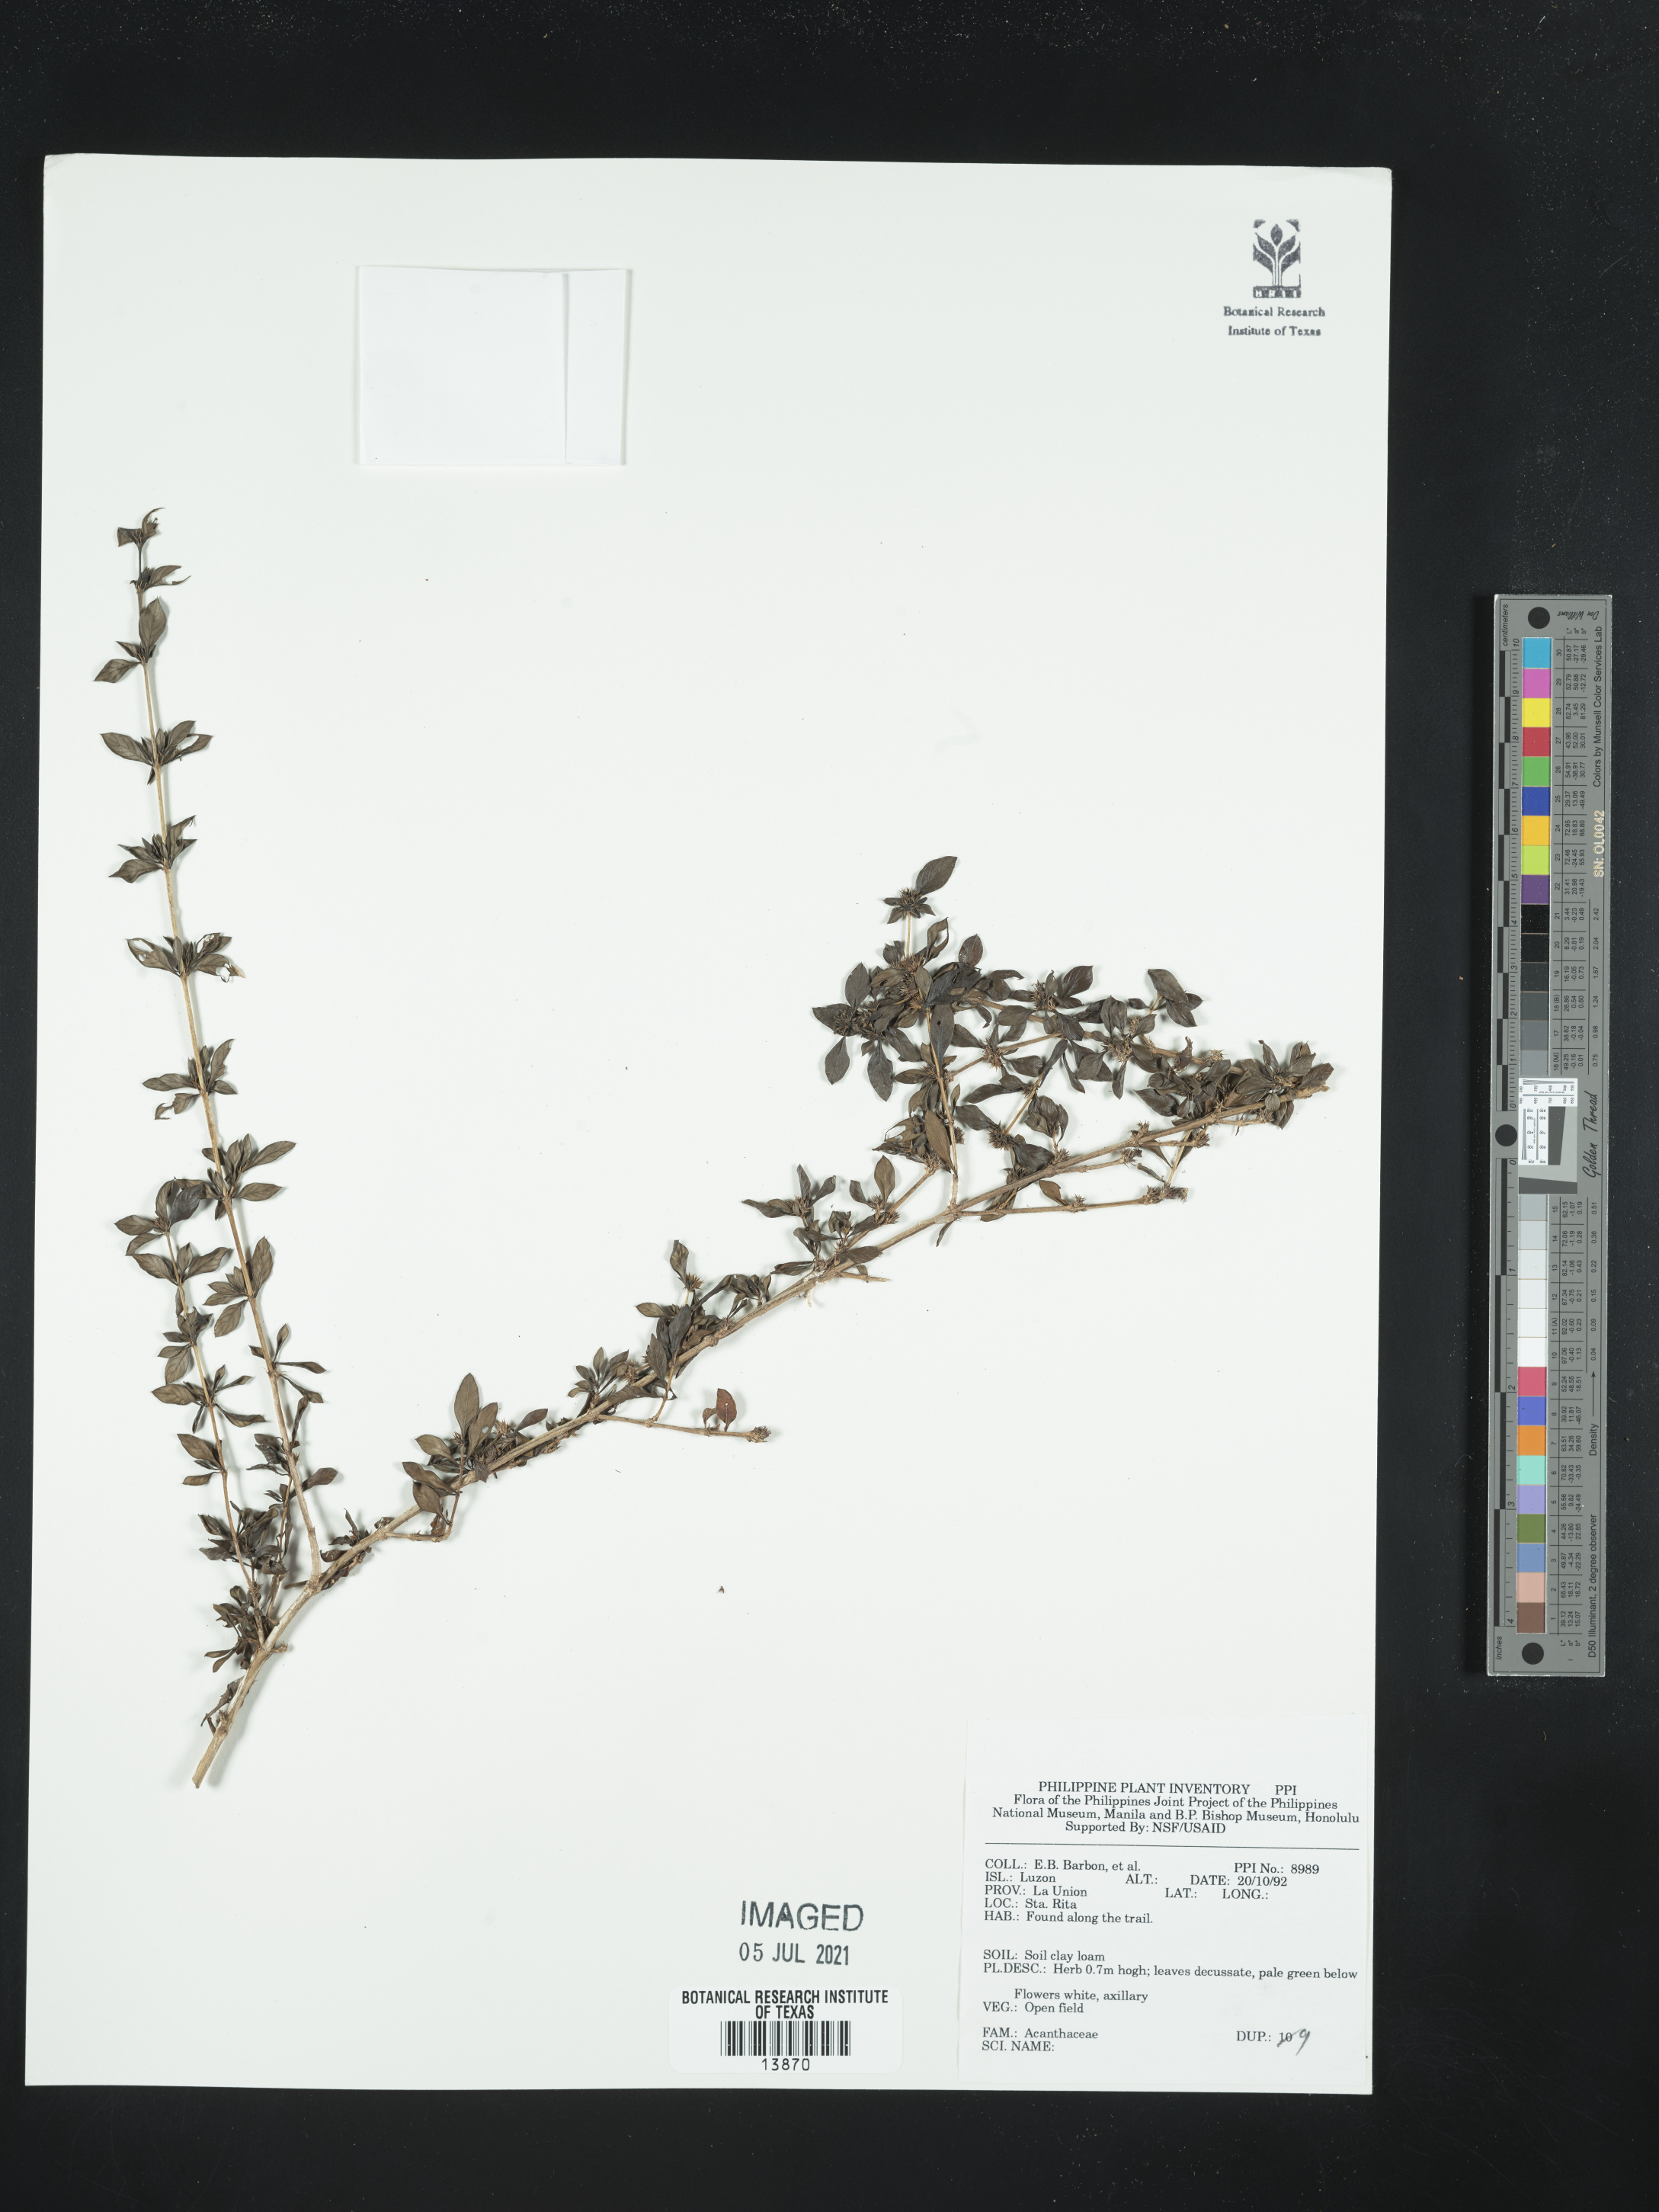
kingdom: Plantae
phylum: Tracheophyta
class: Magnoliopsida
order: Lamiales
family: Acanthaceae
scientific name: Acanthaceae
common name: Acanthaceae
